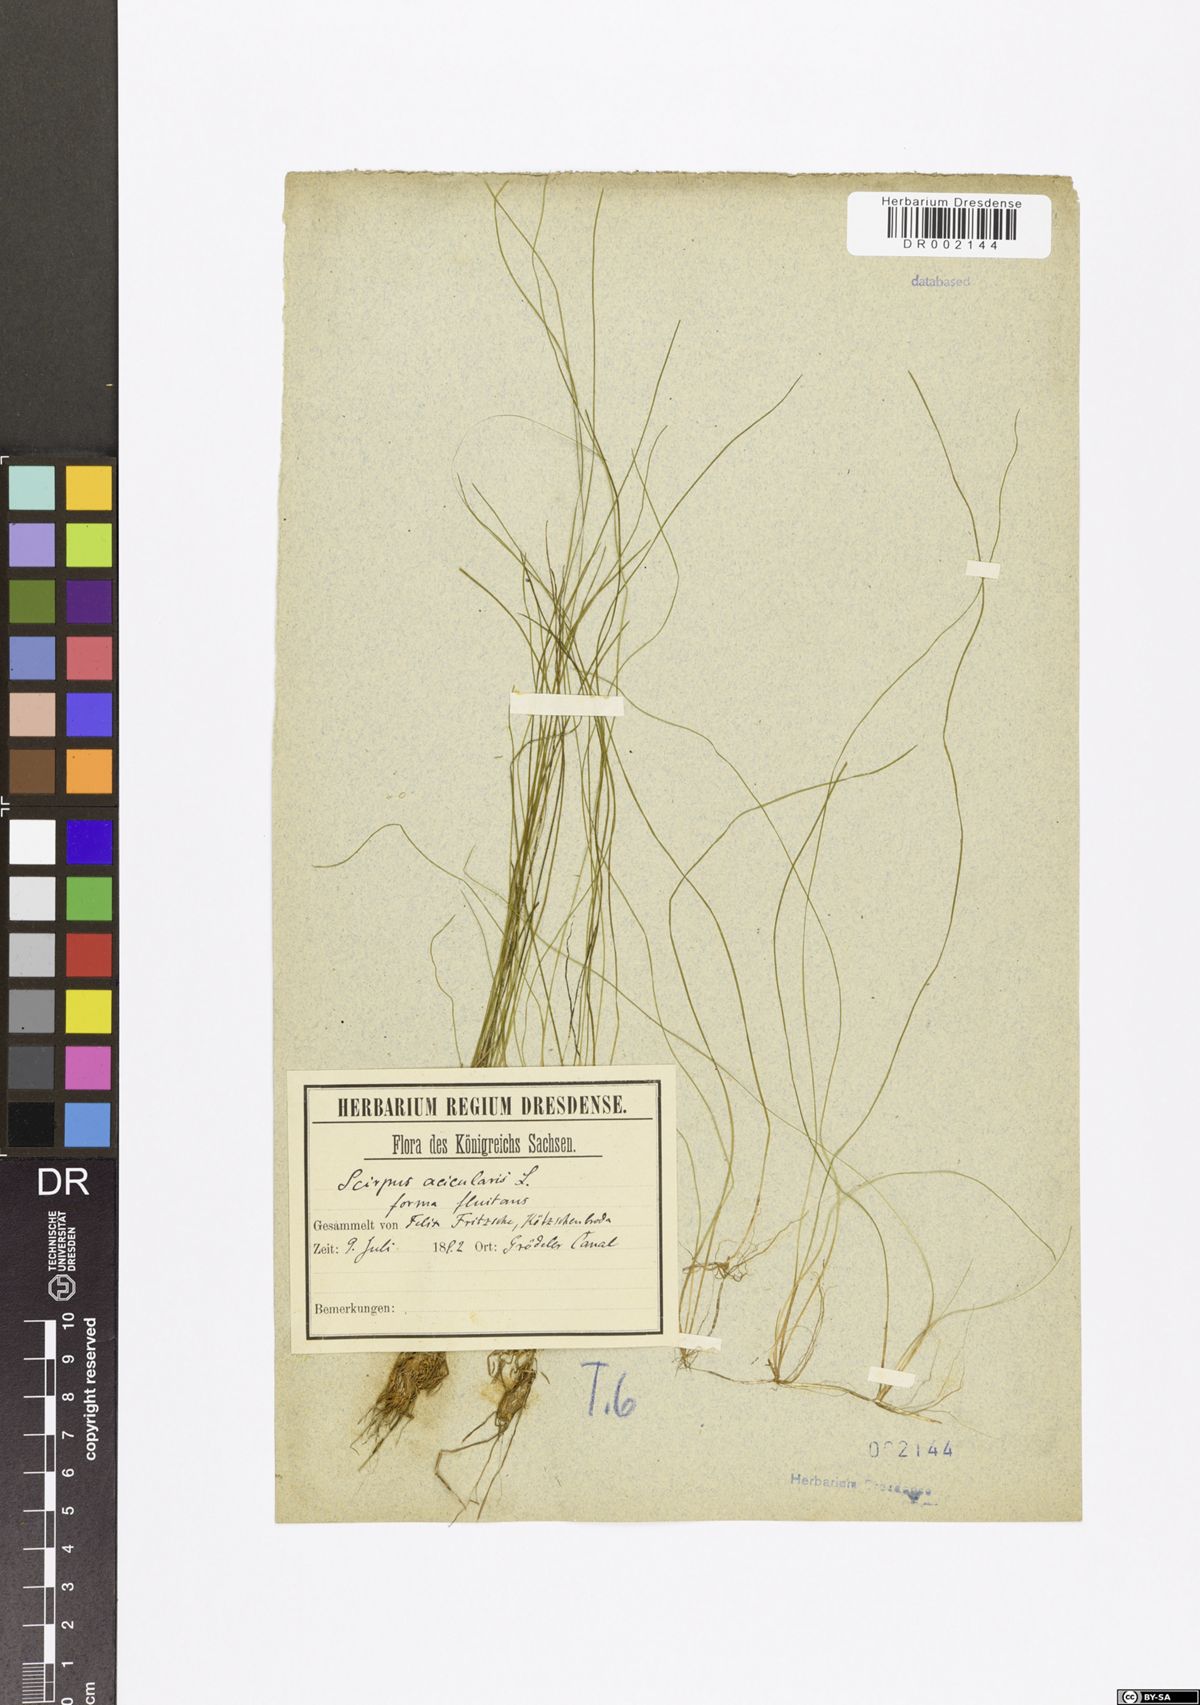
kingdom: Plantae
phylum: Tracheophyta
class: Liliopsida
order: Poales
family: Cyperaceae
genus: Eleocharis
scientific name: Eleocharis acicularis
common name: Needle spike-rush
